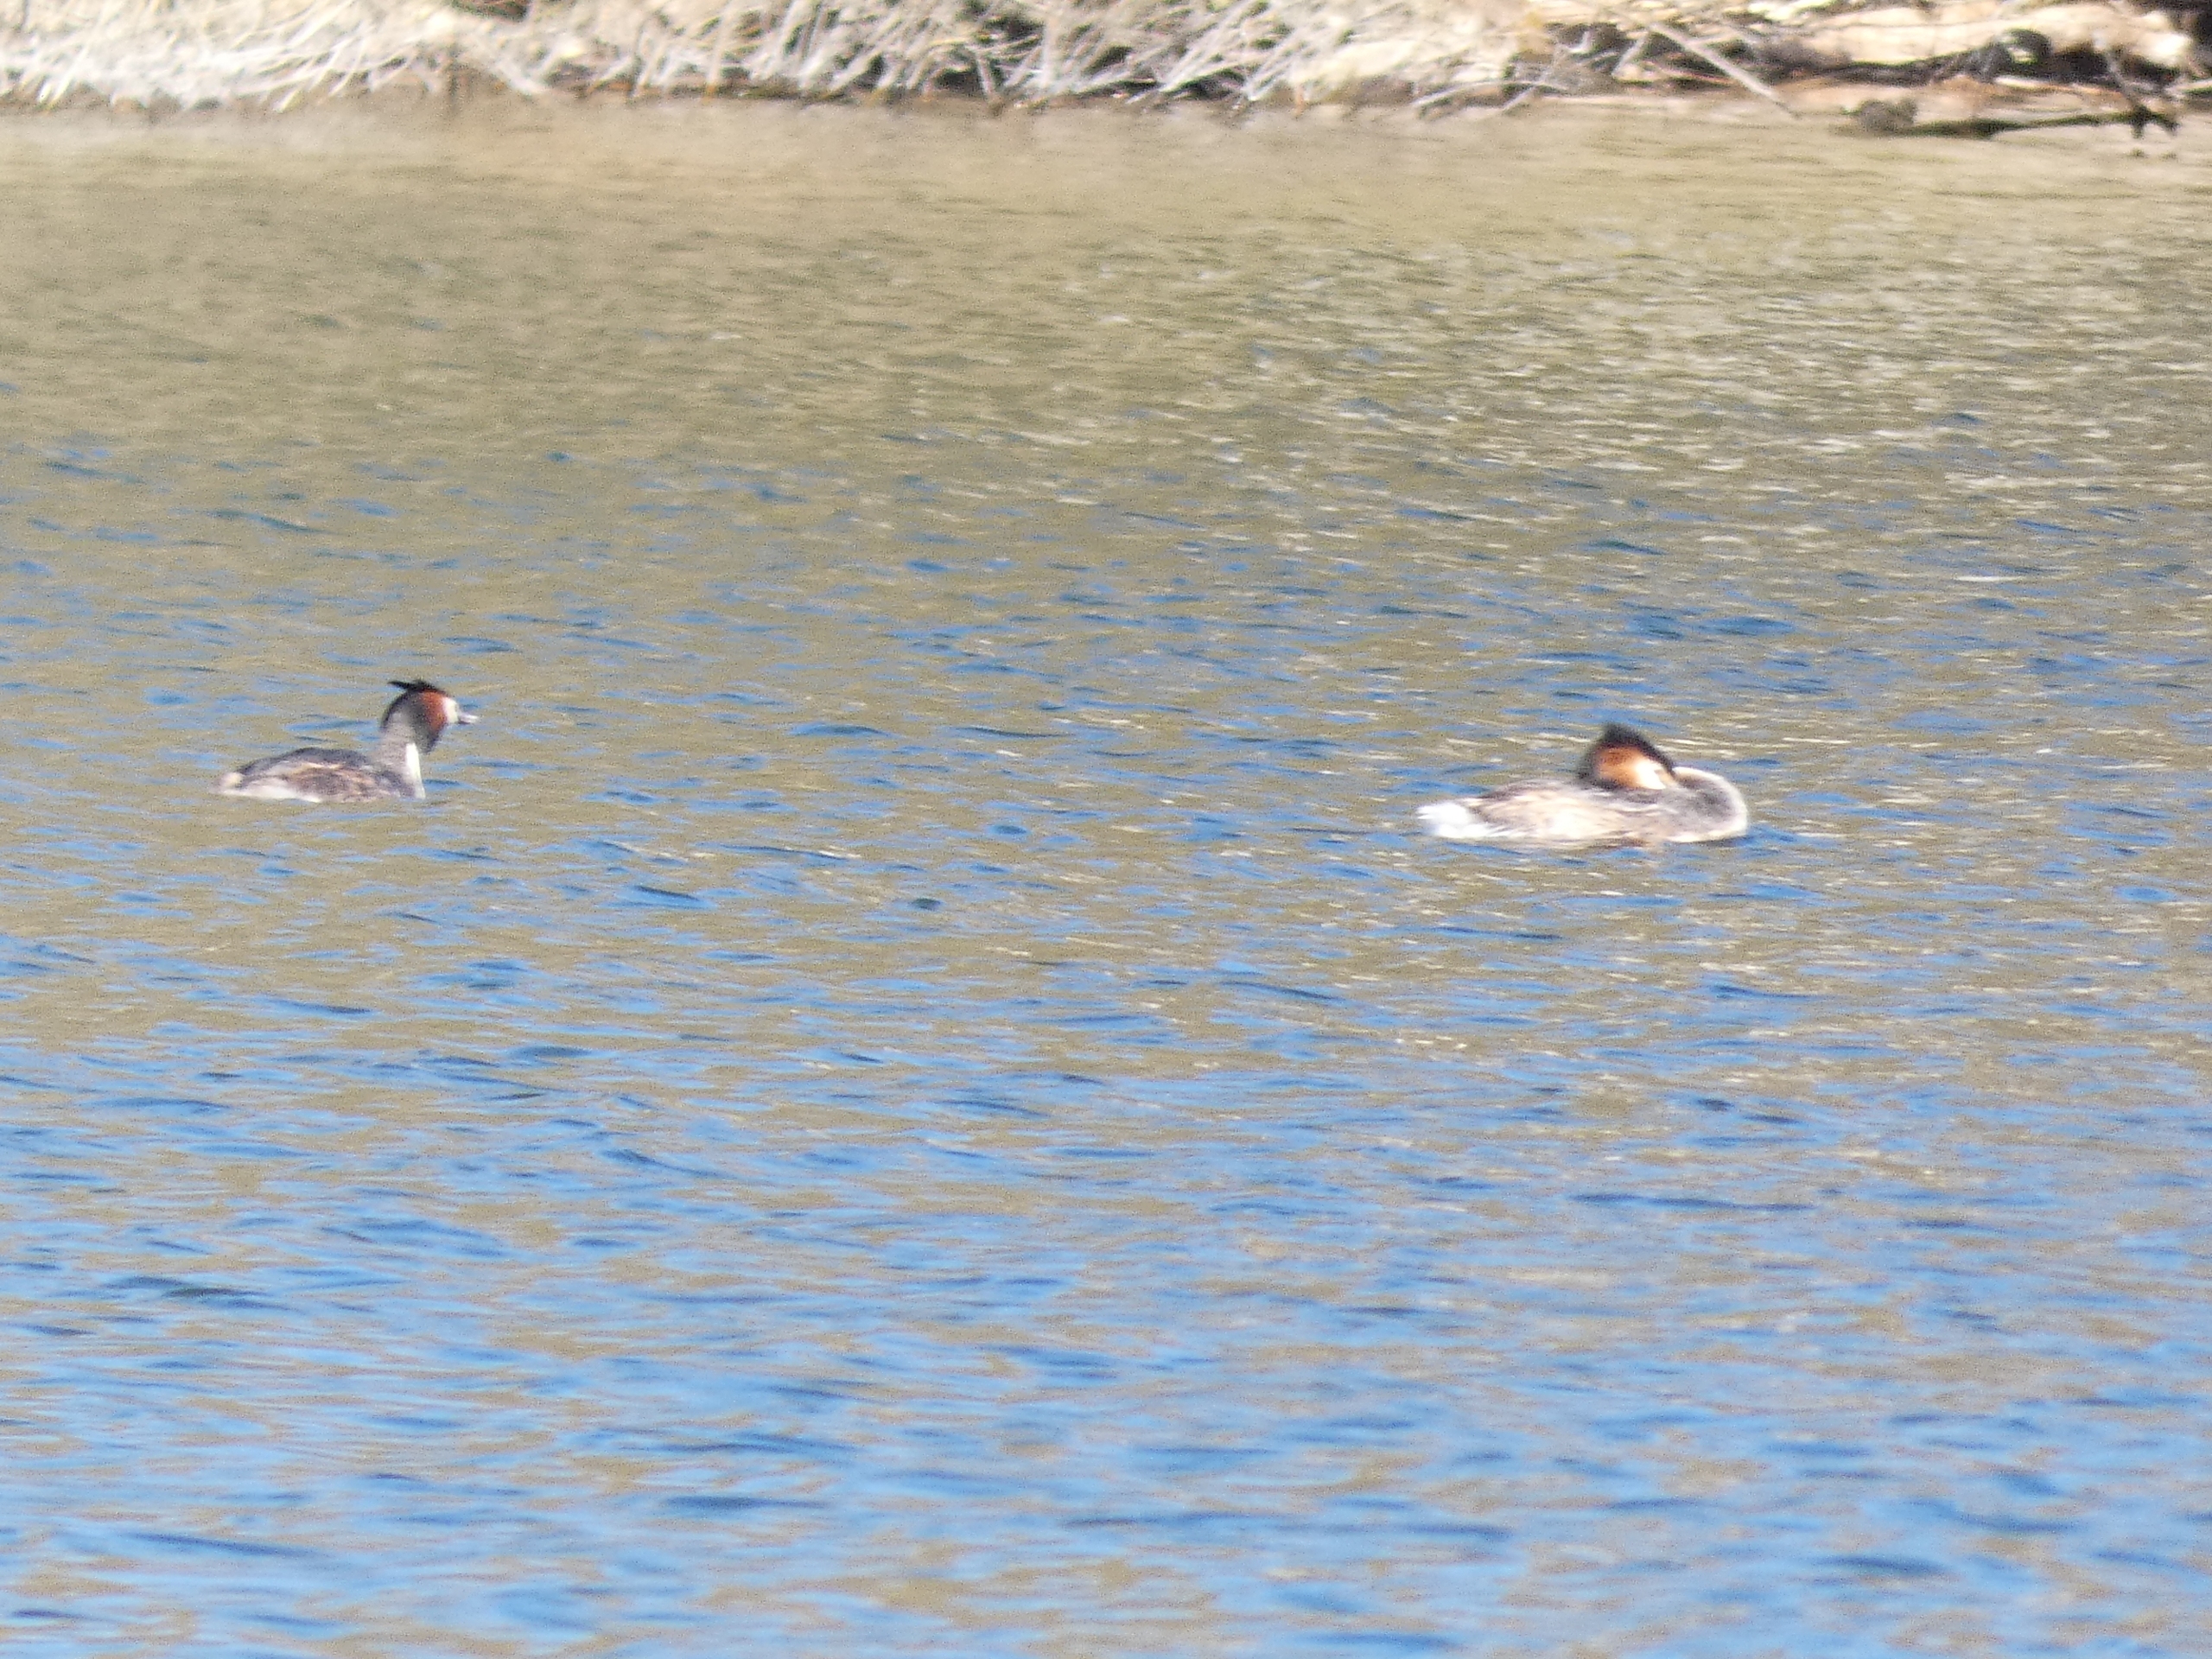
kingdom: Animalia
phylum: Chordata
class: Aves
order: Podicipediformes
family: Podicipedidae
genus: Podiceps
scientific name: Podiceps cristatus
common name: Toppet lappedykker
